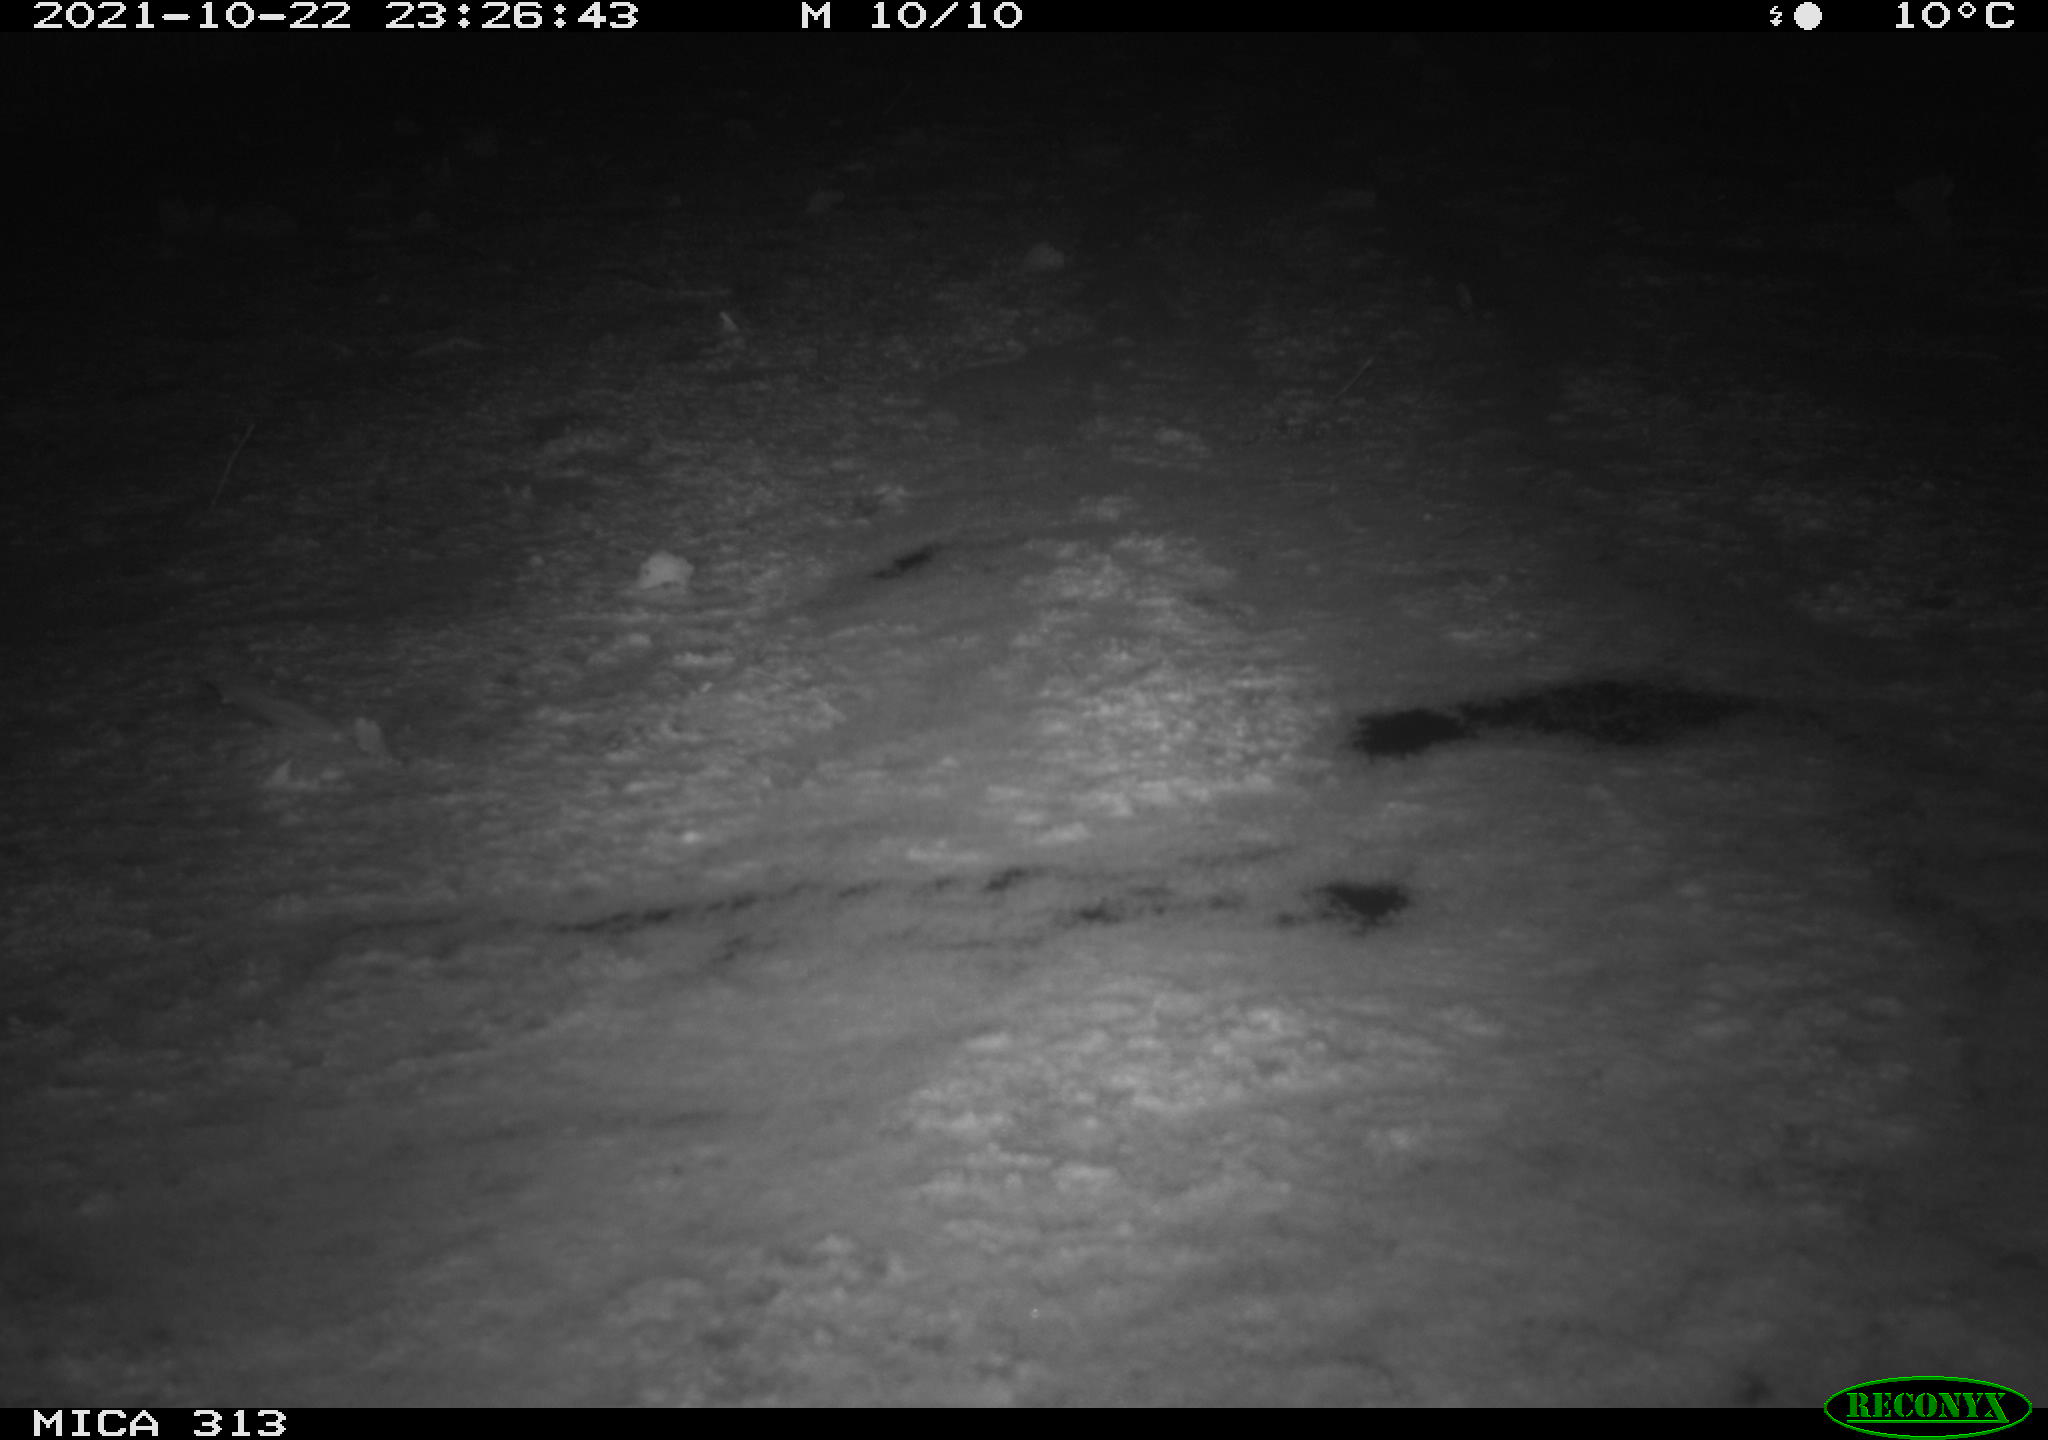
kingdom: Animalia
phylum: Chordata
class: Aves
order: Gruiformes
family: Rallidae
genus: Fulica
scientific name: Fulica atra
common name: Eurasian coot
